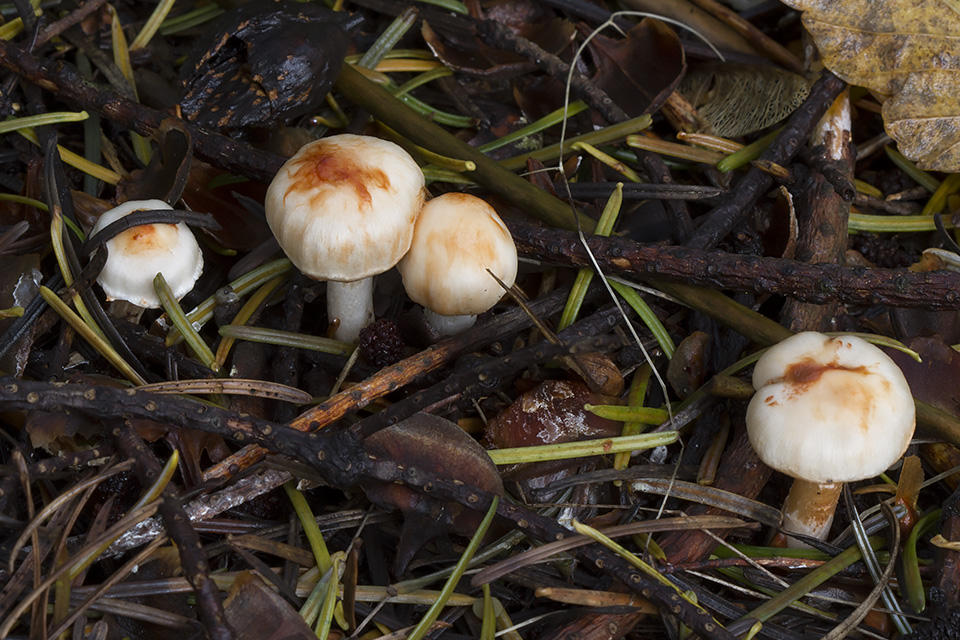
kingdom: Fungi
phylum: Basidiomycota
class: Agaricomycetes
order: Agaricales
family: Inocybaceae
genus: Inocybe
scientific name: Inocybe
